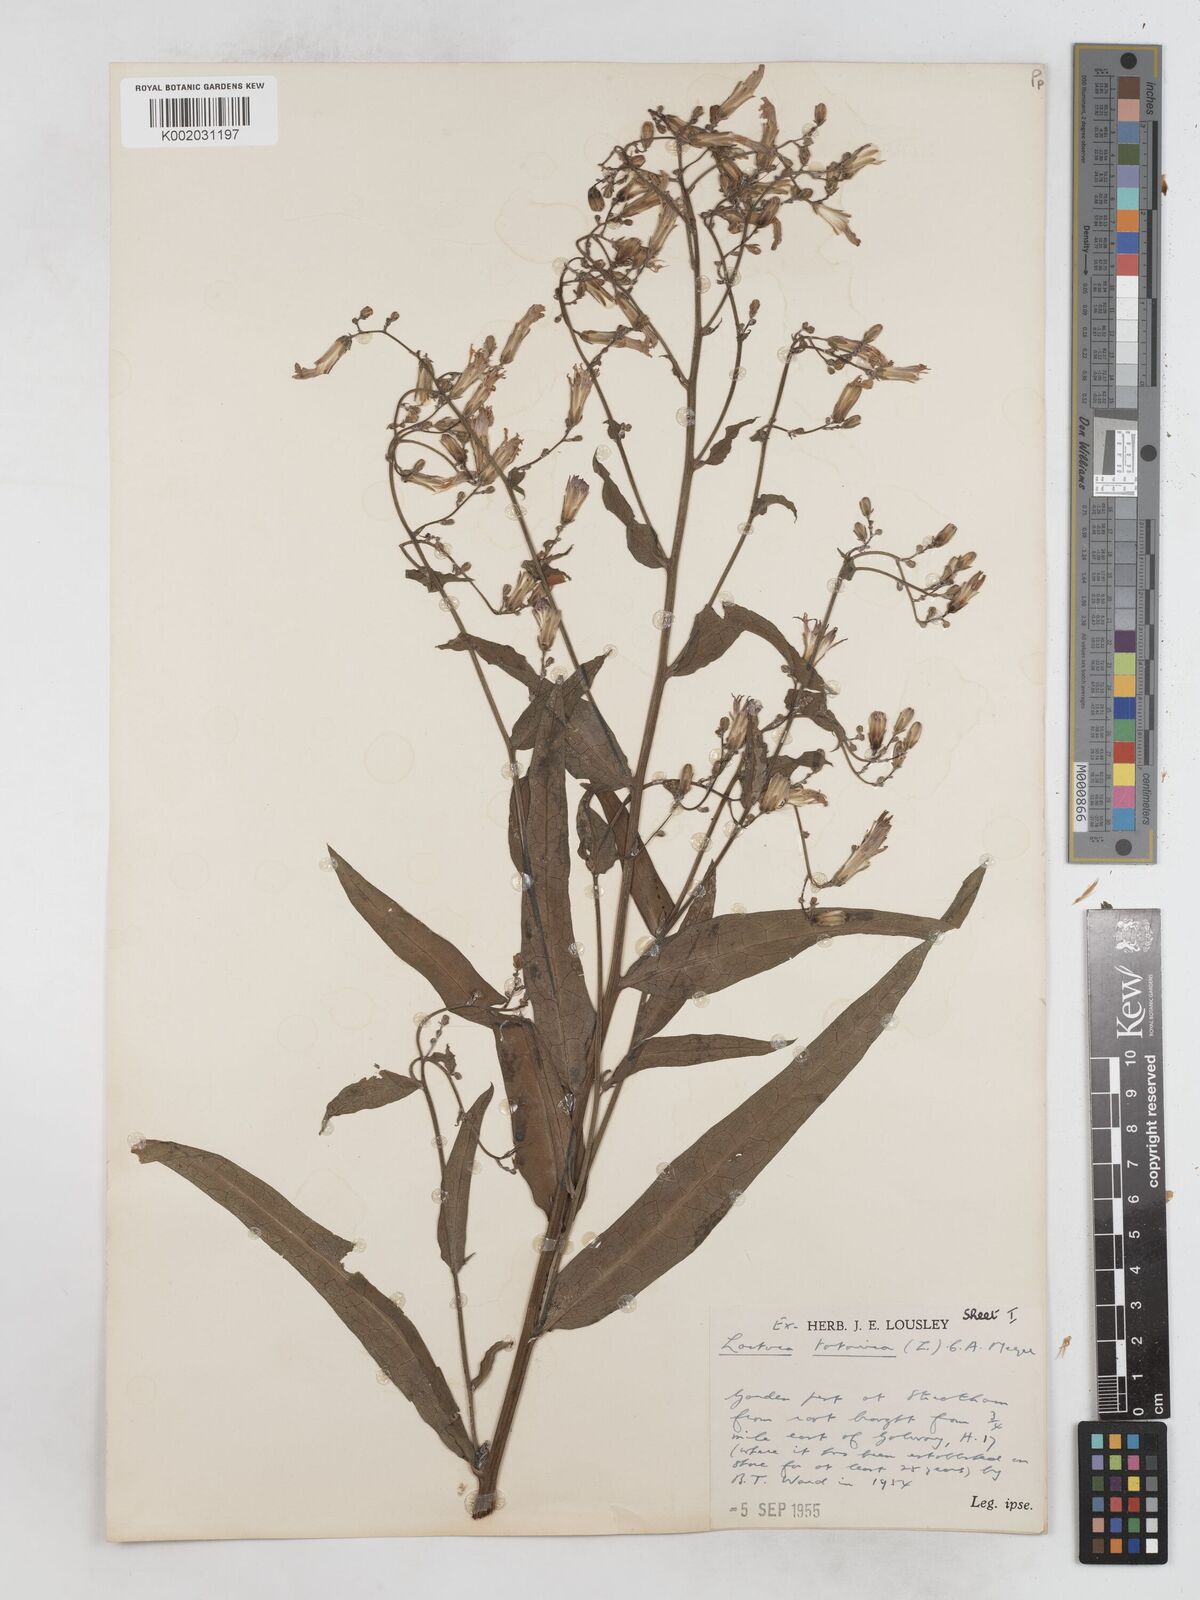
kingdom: Plantae
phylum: Tracheophyta
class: Magnoliopsida
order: Asterales
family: Asteraceae
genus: Lactuca
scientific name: Lactuca tatarica
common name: Blue lettuce
